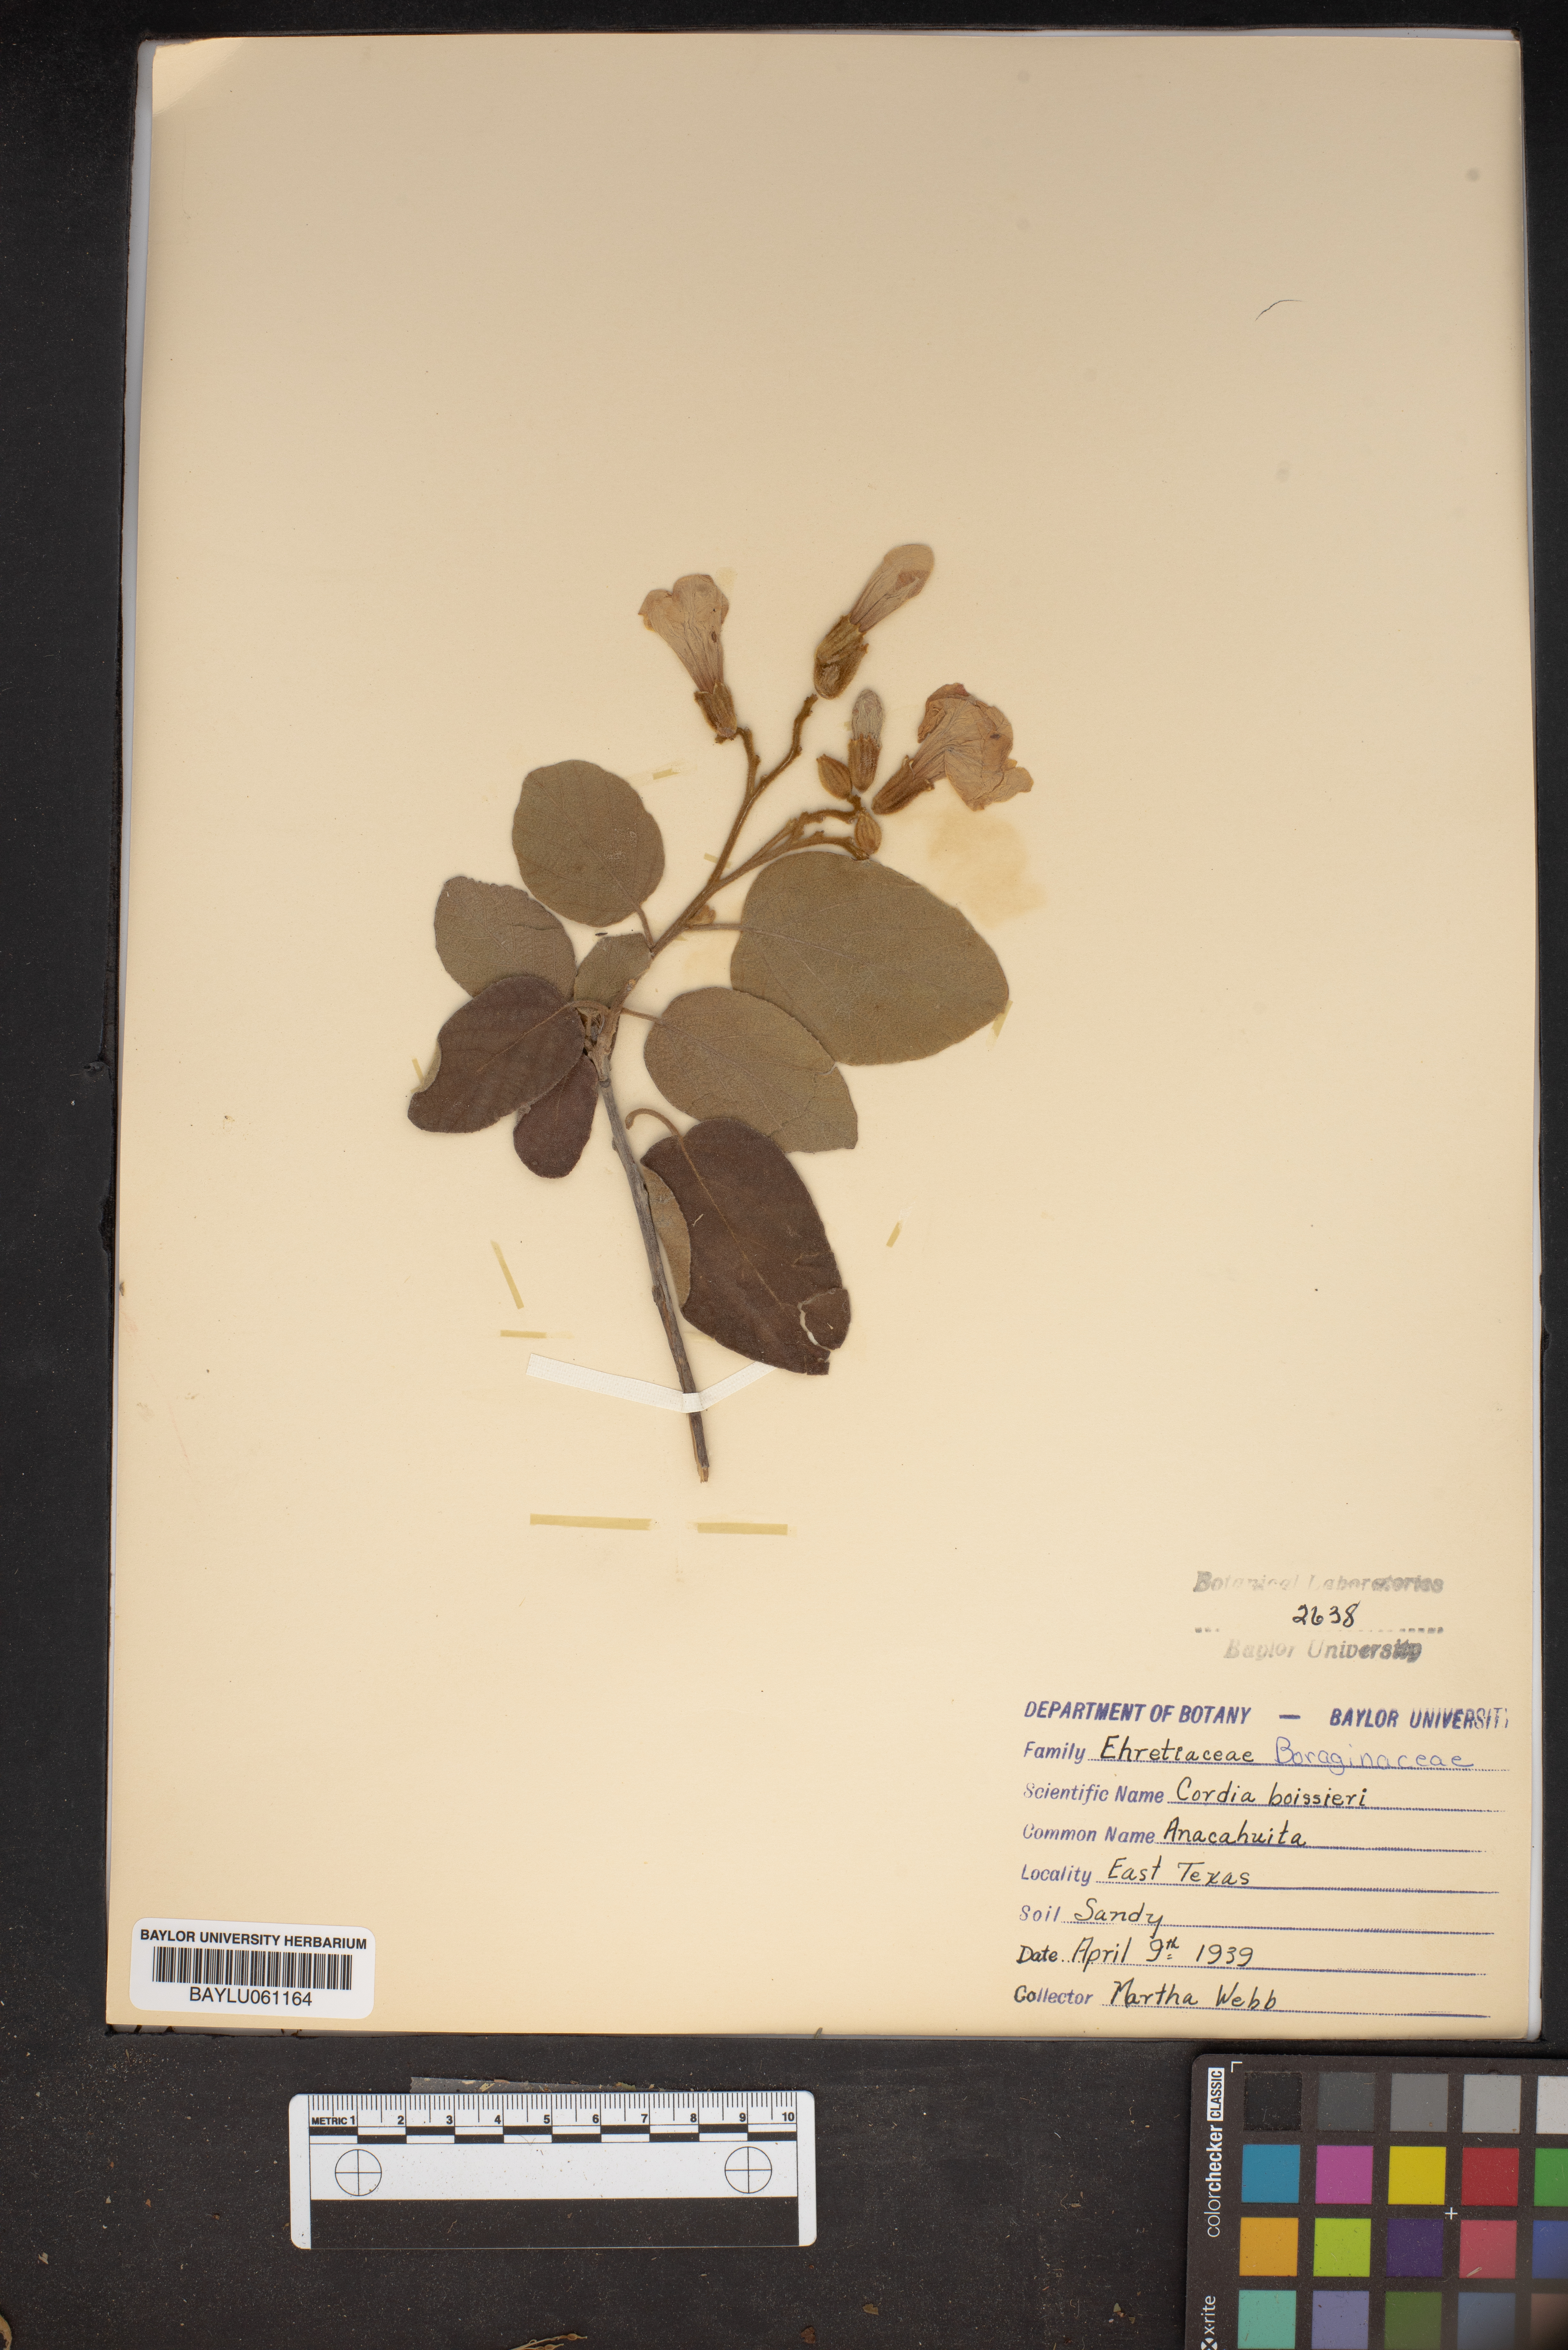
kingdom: Plantae
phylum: Tracheophyta
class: Magnoliopsida
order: Boraginales
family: Cordiaceae
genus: Cordia
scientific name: Cordia boissieri
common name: Mexican-olive
